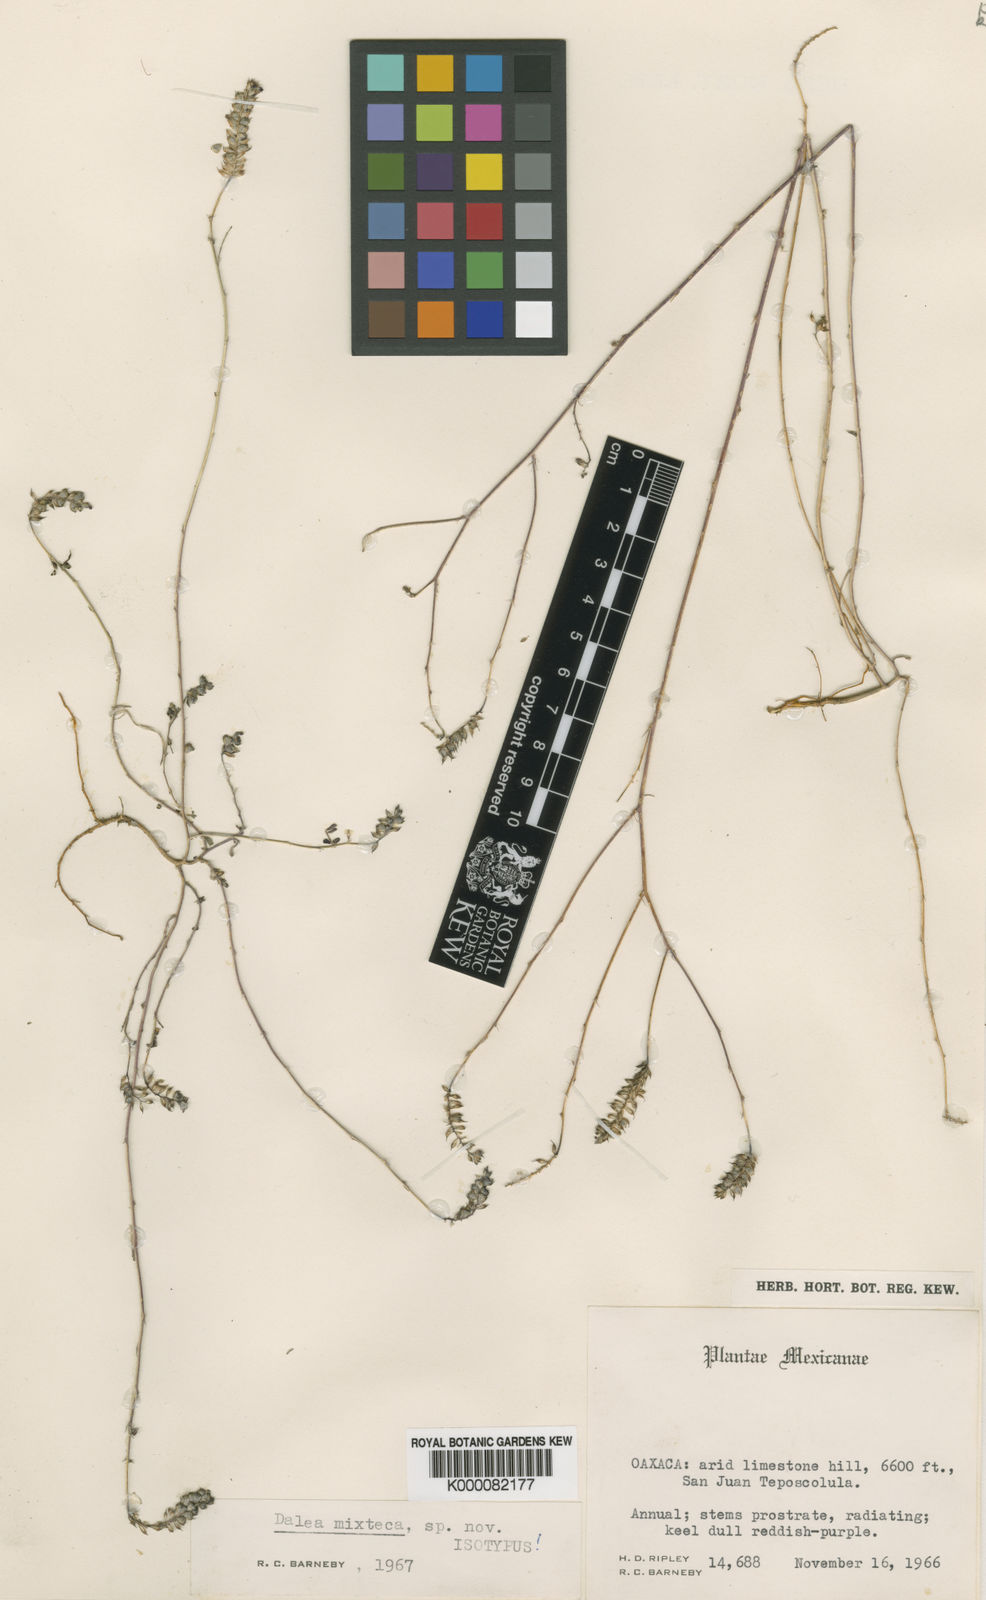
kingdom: Plantae
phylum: Tracheophyta
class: Magnoliopsida
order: Fabales
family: Fabaceae
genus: Dalea
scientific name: Dalea
